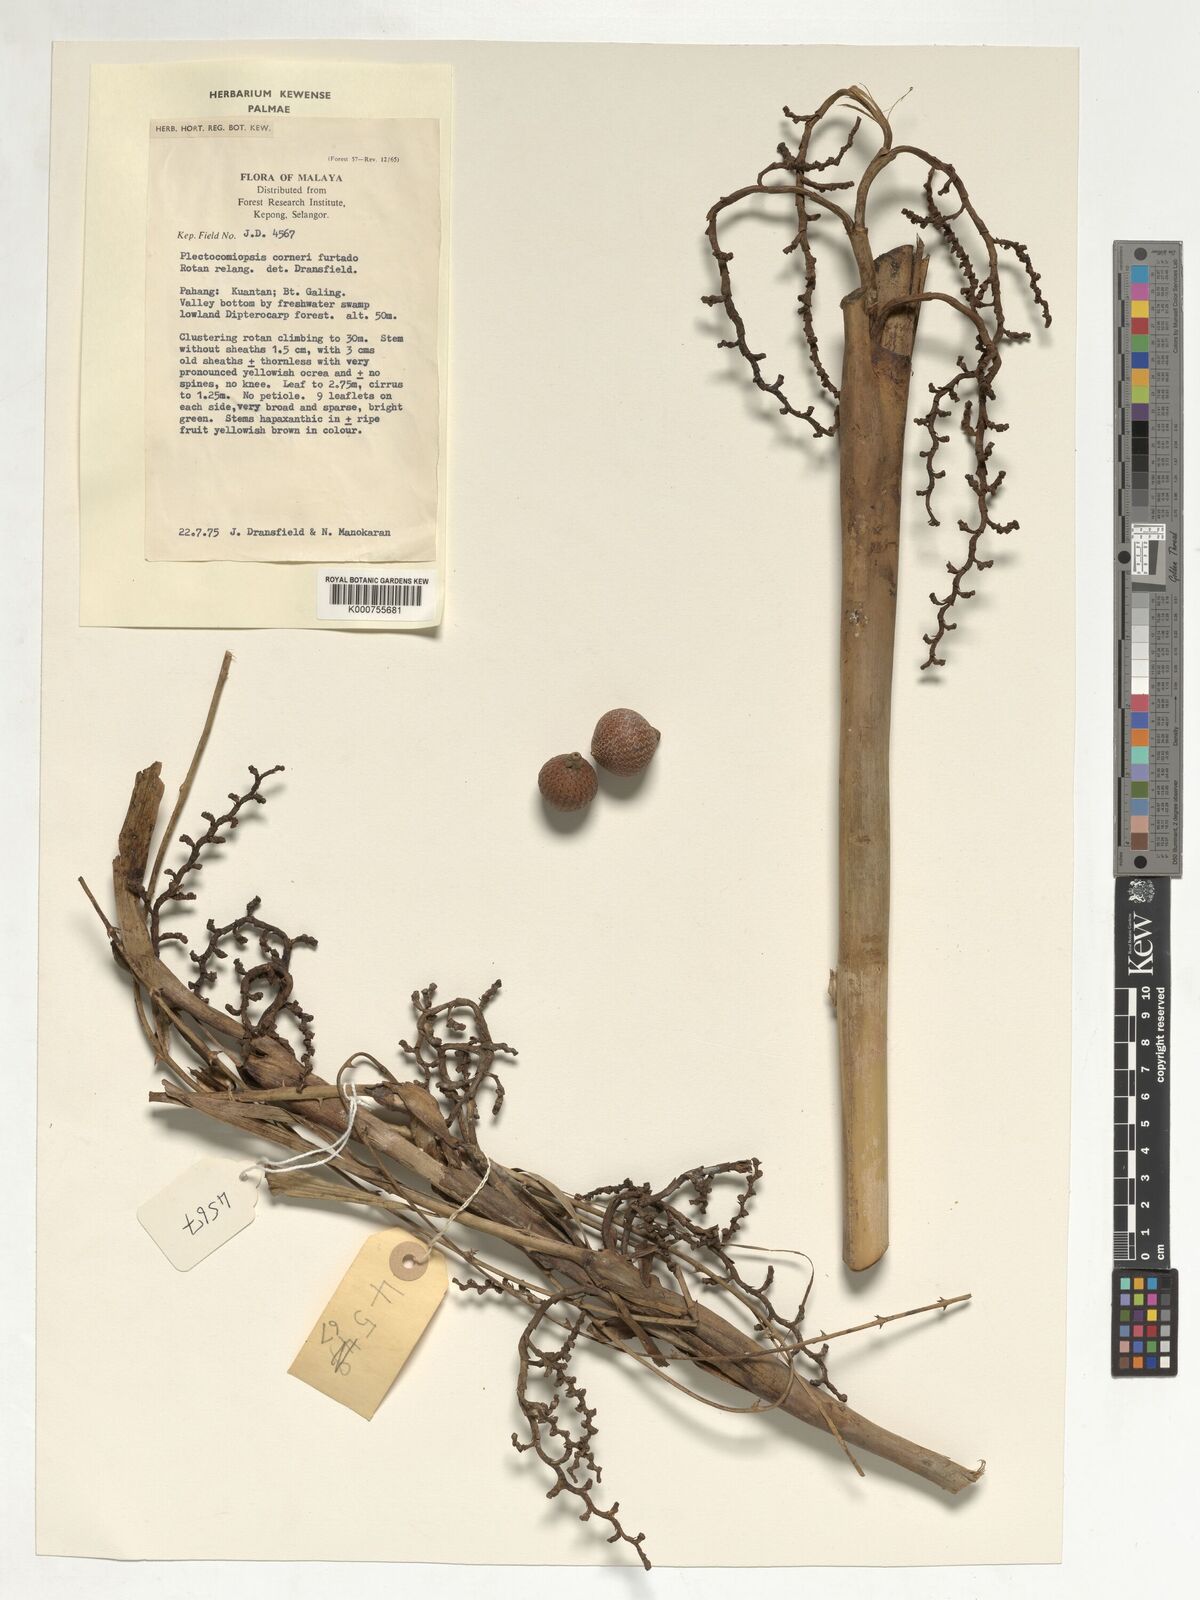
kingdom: Plantae
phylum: Tracheophyta
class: Liliopsida
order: Arecales
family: Arecaceae
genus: Plectocomiopsis
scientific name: Plectocomiopsis corneri
